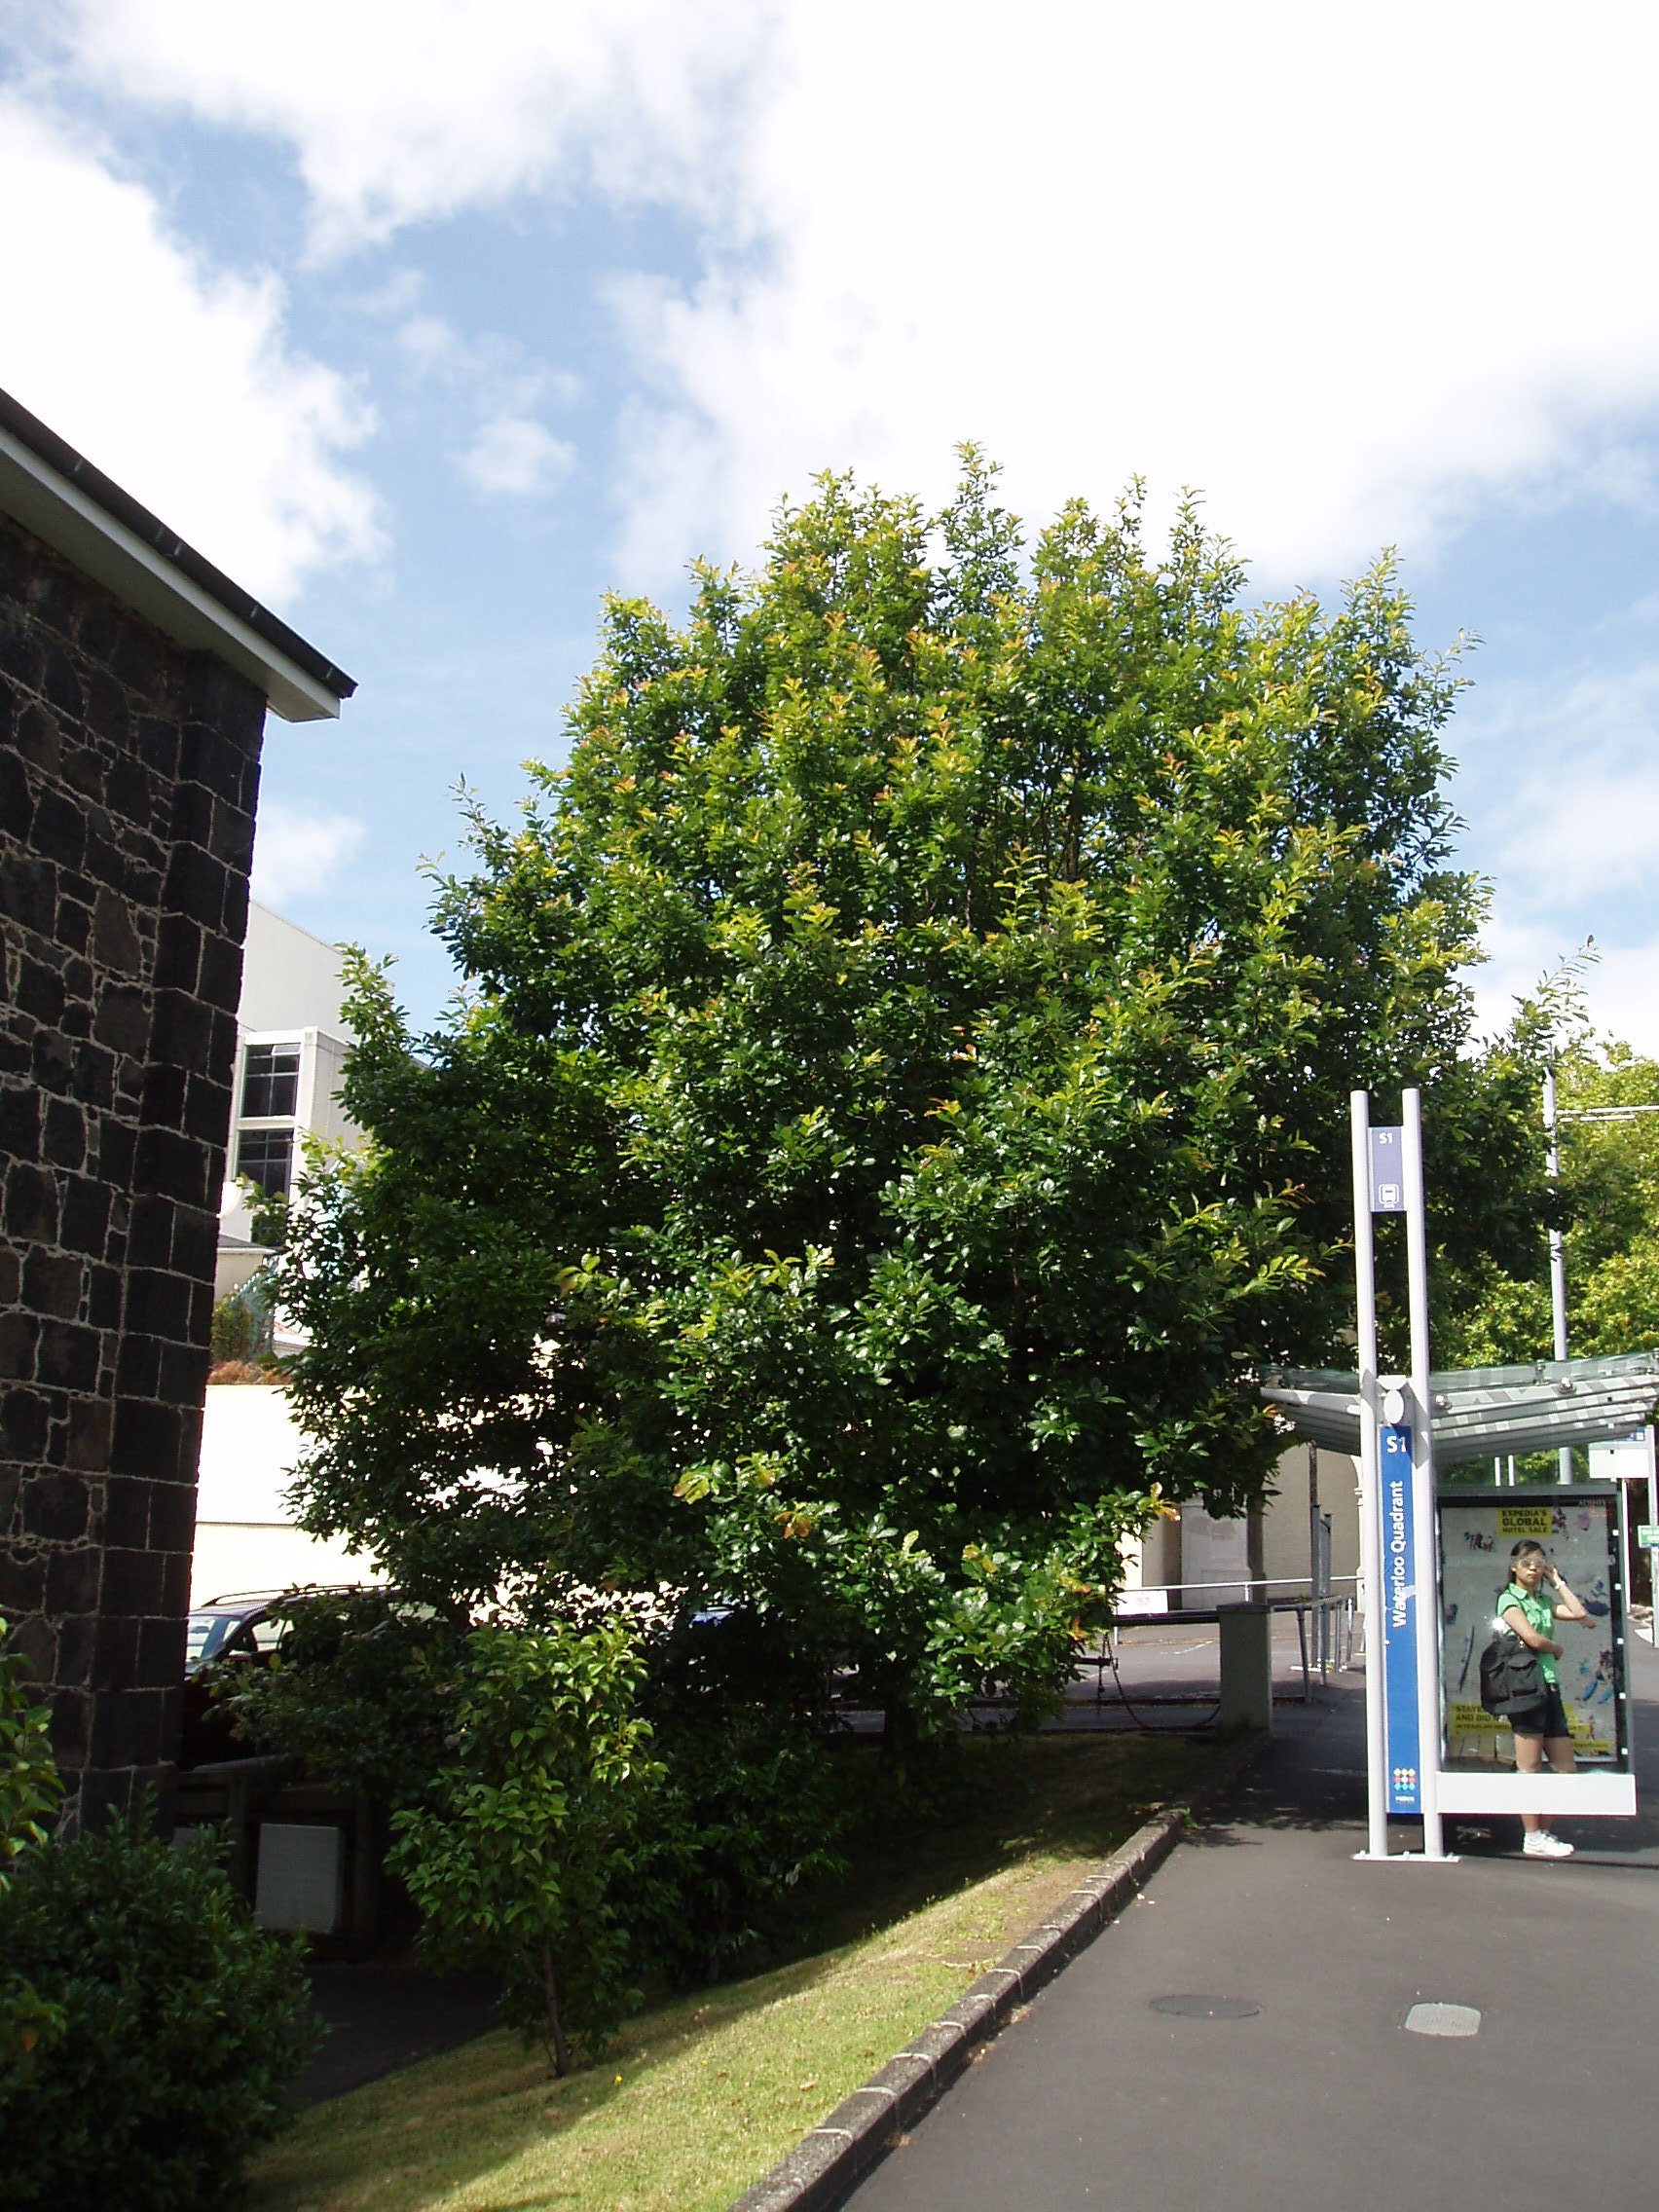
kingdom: Plantae
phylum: Tracheophyta
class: Magnoliopsida
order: Fagales
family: Fagaceae
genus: Quercus
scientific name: Quercus bicolor
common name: Swamp white oak
